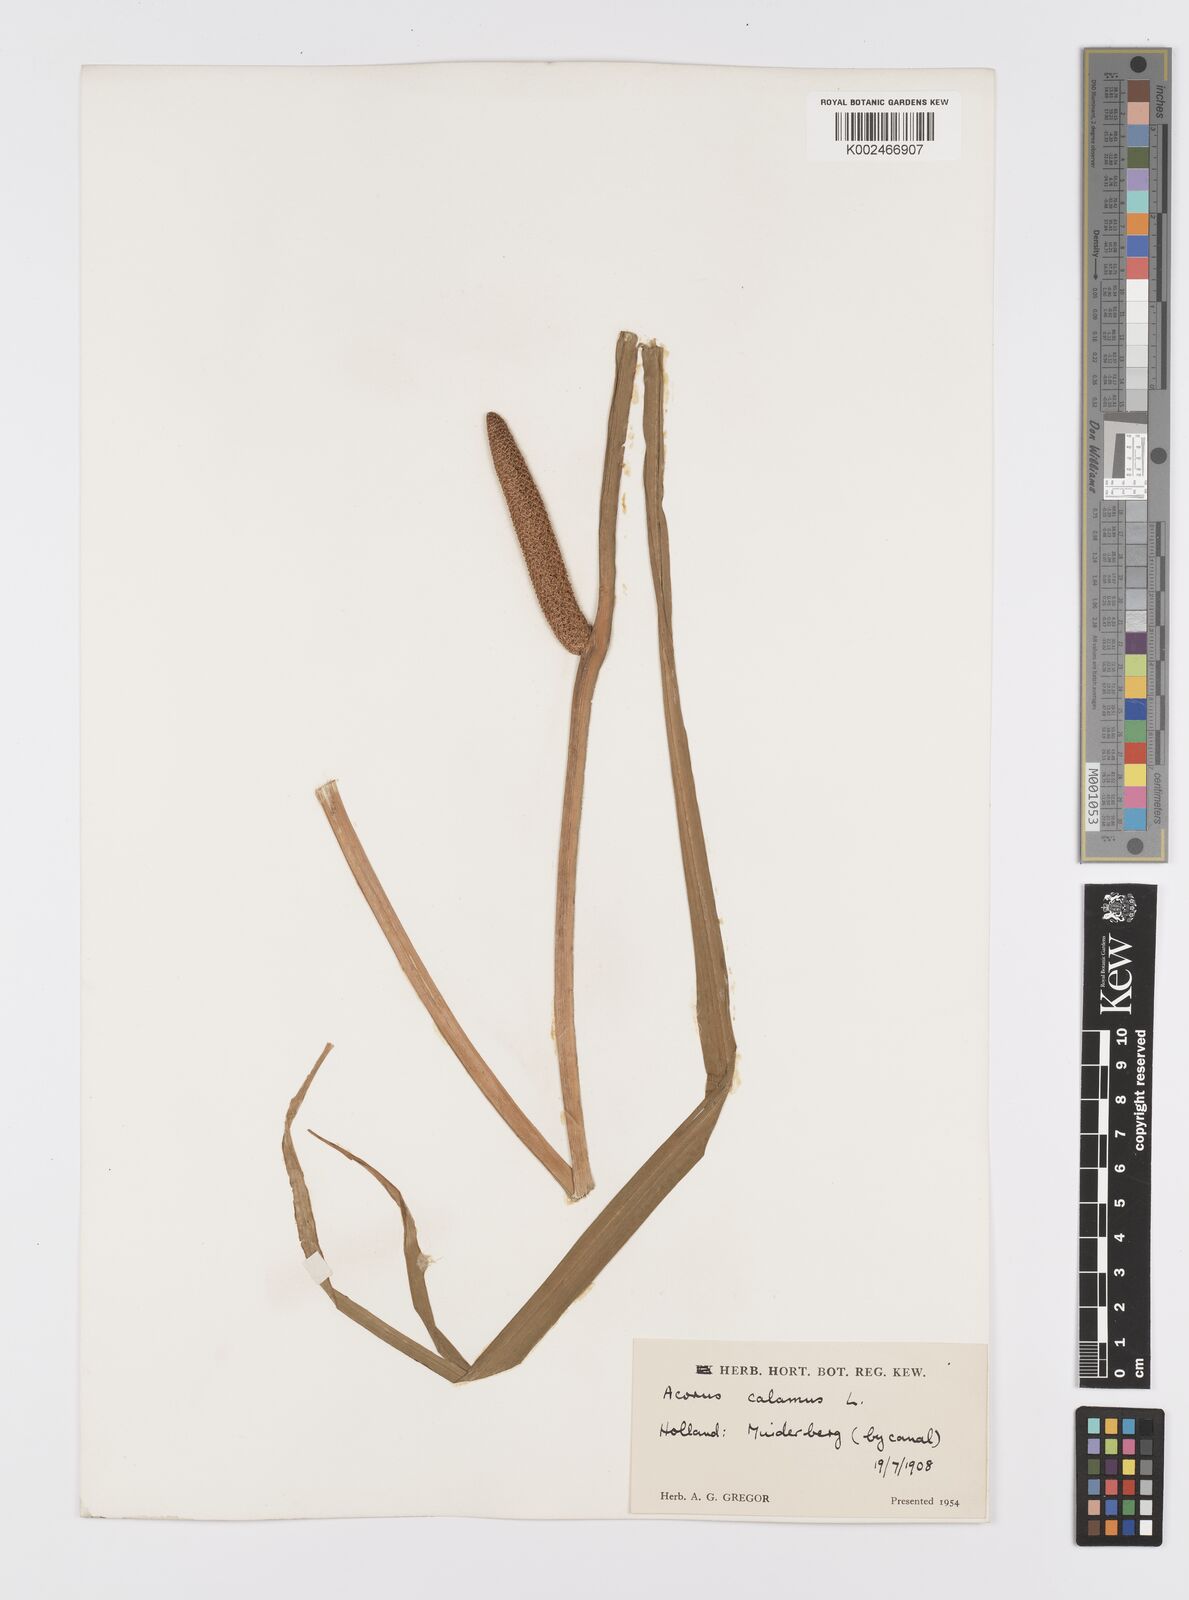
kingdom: Plantae
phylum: Tracheophyta
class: Liliopsida
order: Acorales
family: Acoraceae
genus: Acorus
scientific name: Acorus calamus
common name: Sweet-flag
